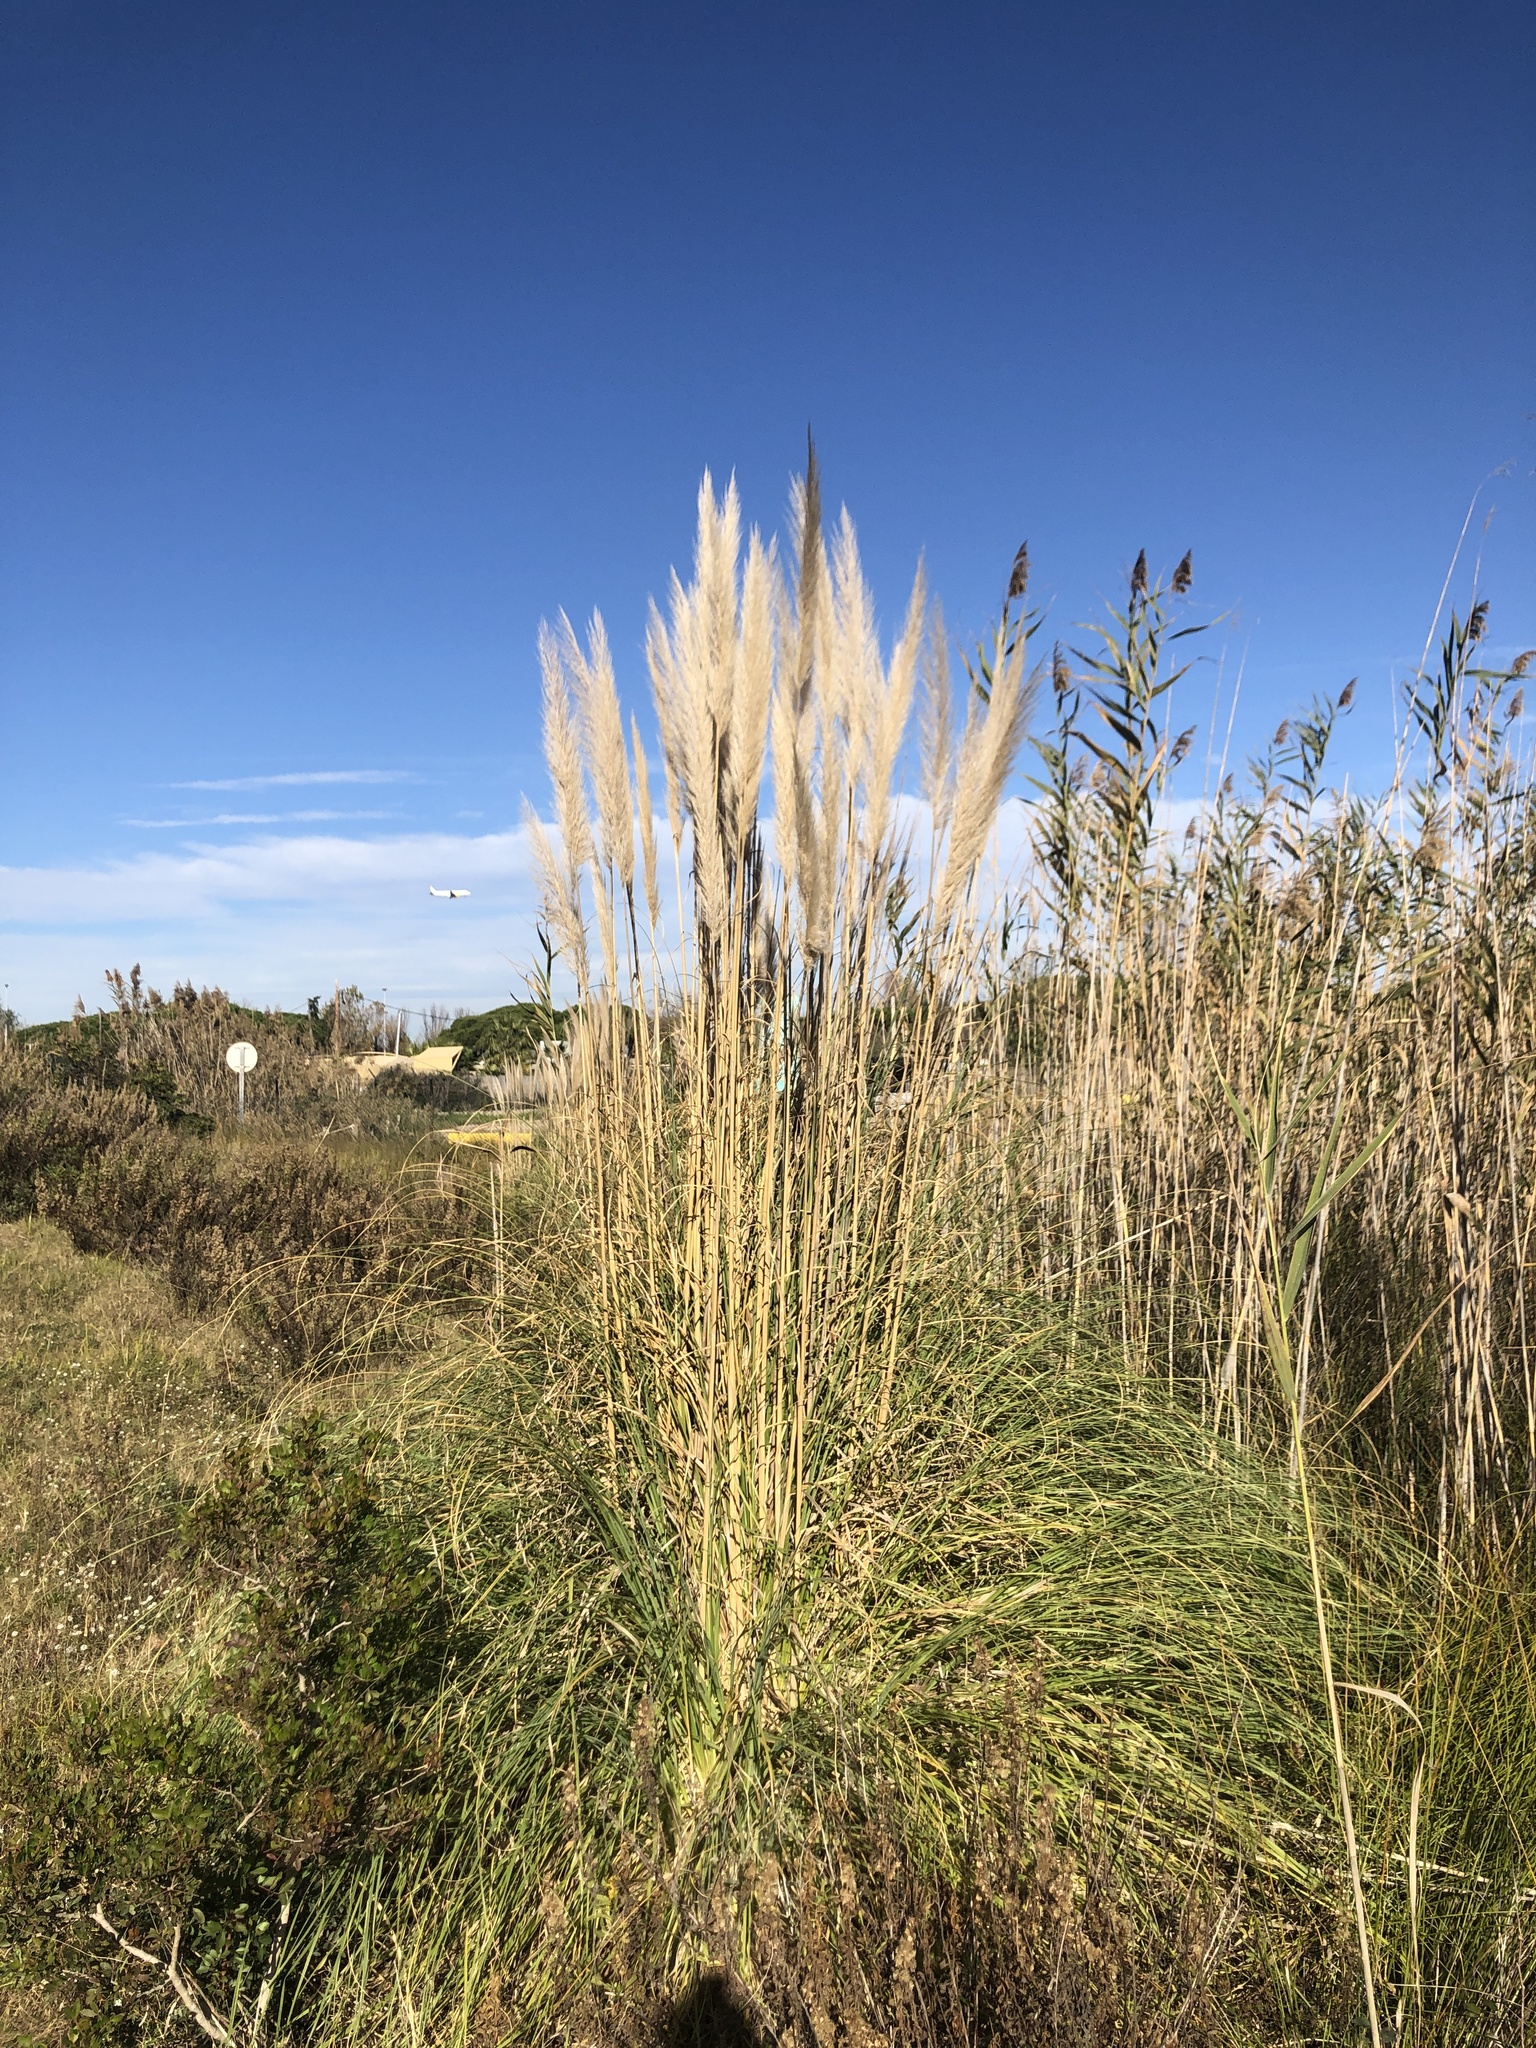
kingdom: Plantae
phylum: Tracheophyta
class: Liliopsida
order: Poales
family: Poaceae
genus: Cortaderia
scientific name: Cortaderia selloana
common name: Uruguayan pampas grass
